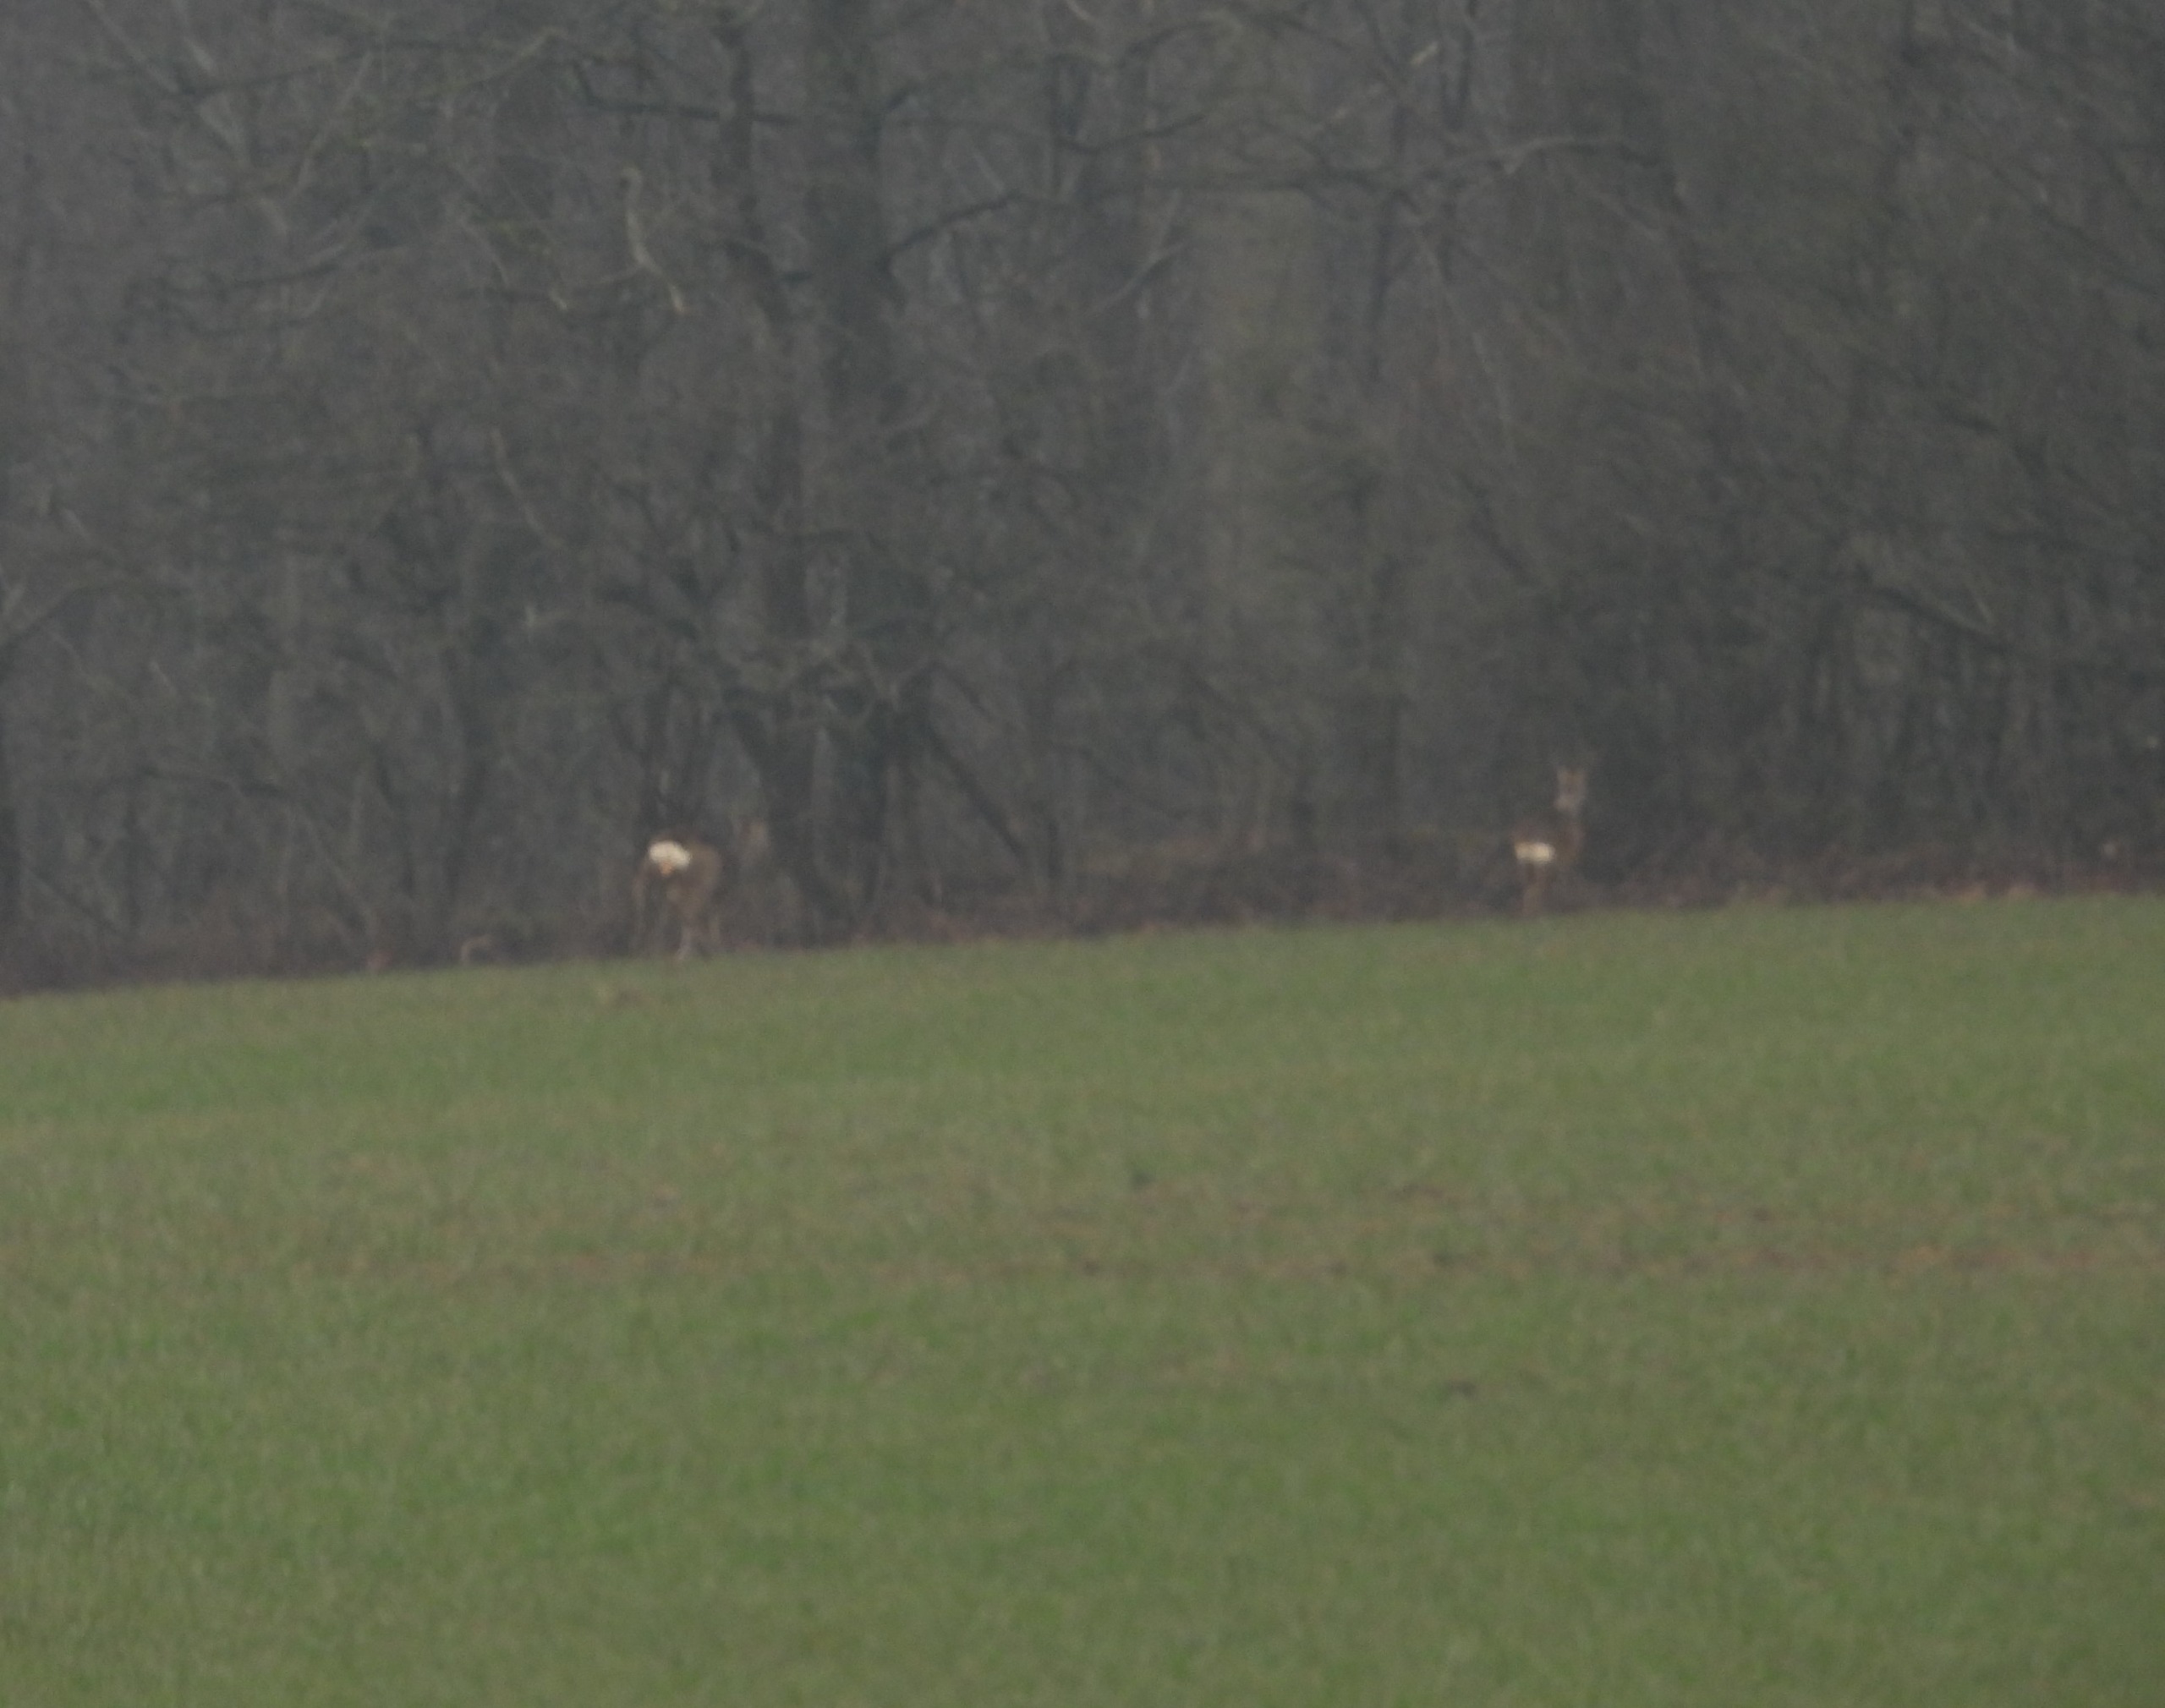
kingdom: Animalia
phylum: Chordata
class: Mammalia
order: Artiodactyla
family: Cervidae
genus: Capreolus
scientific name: Capreolus capreolus
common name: Rådyr
